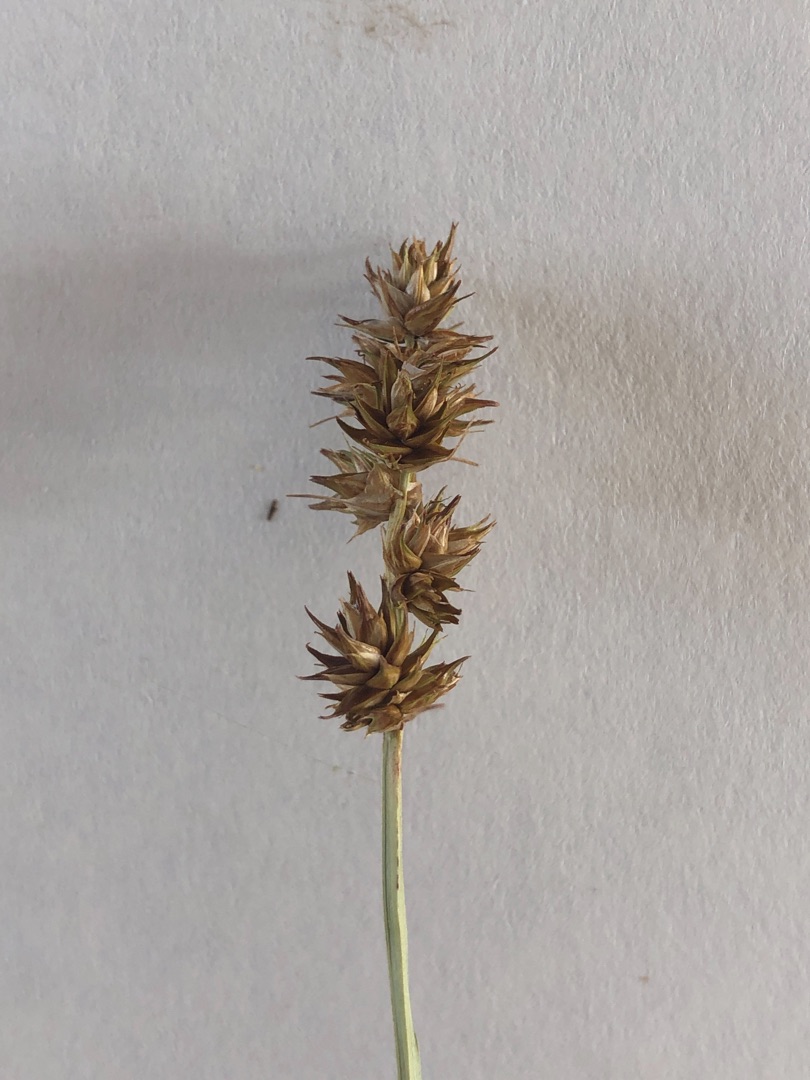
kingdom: Plantae
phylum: Tracheophyta
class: Liliopsida
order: Poales
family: Cyperaceae
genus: Carex
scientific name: Carex otrubae
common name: Sylt-star
